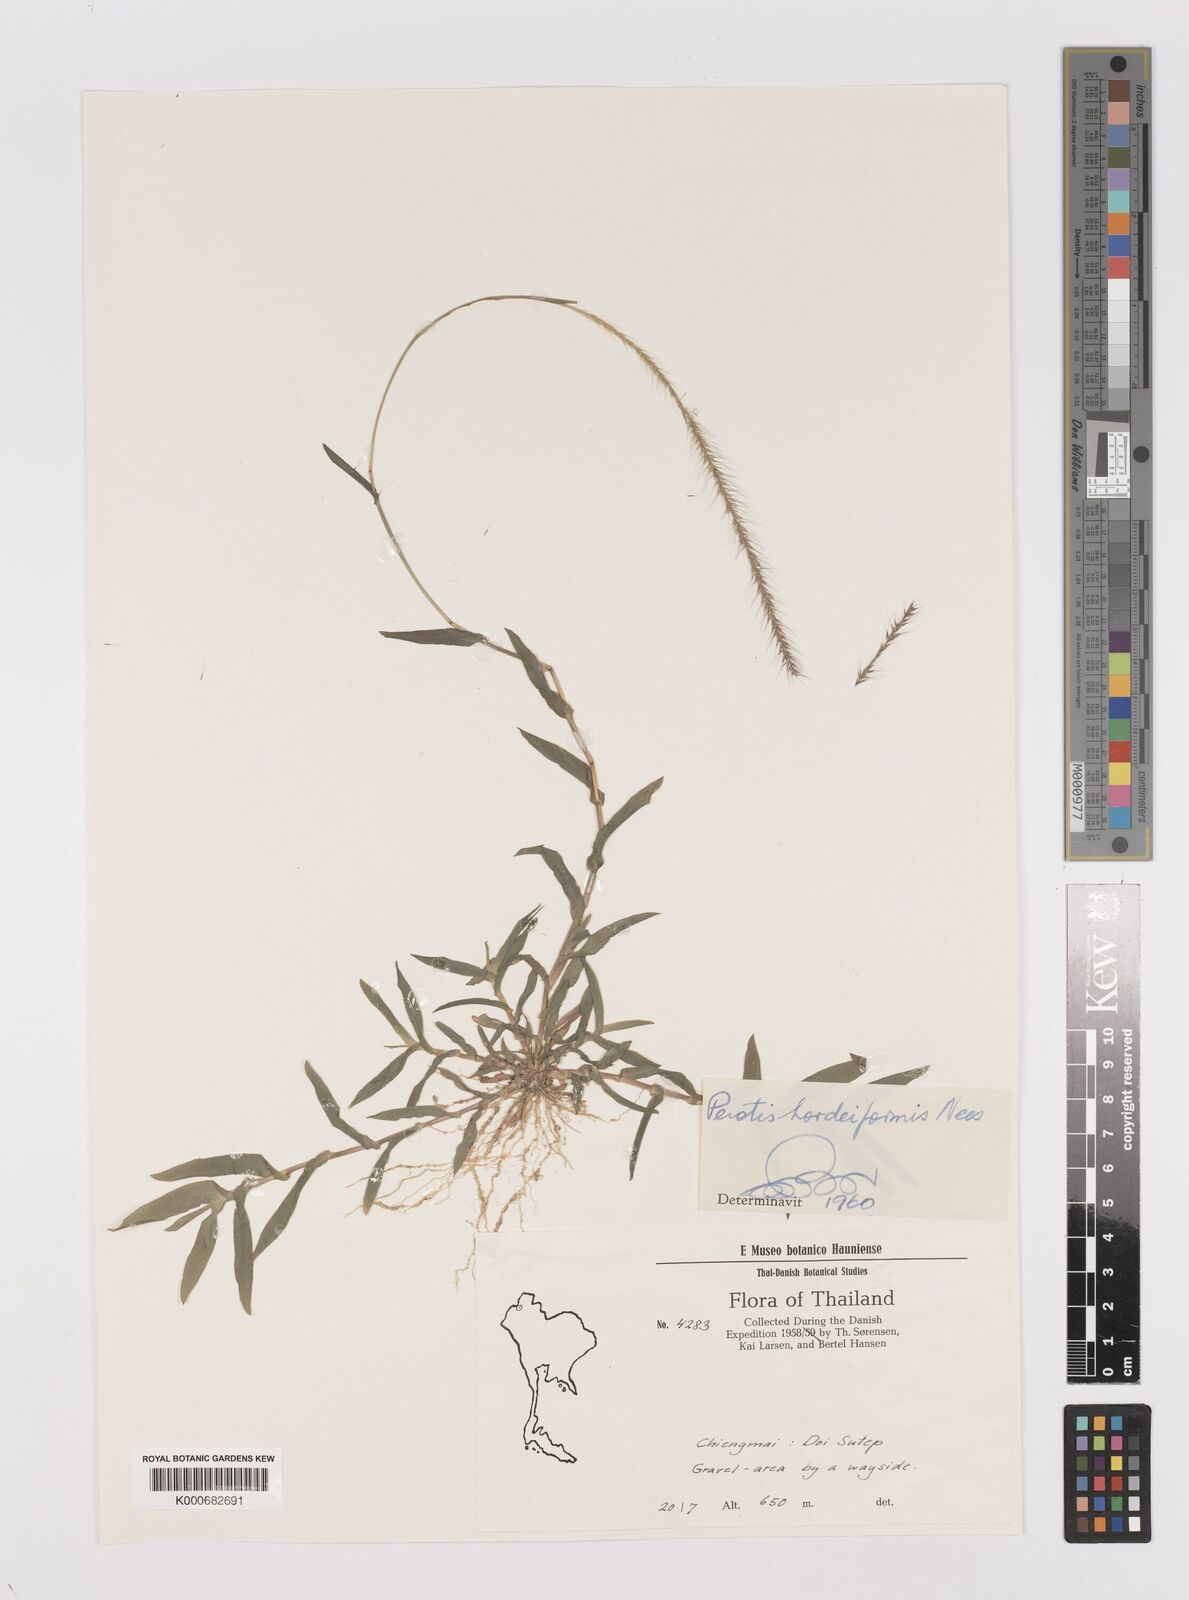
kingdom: Plantae
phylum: Tracheophyta
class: Liliopsida
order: Poales
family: Poaceae
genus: Perotis
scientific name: Perotis hordeiformis
